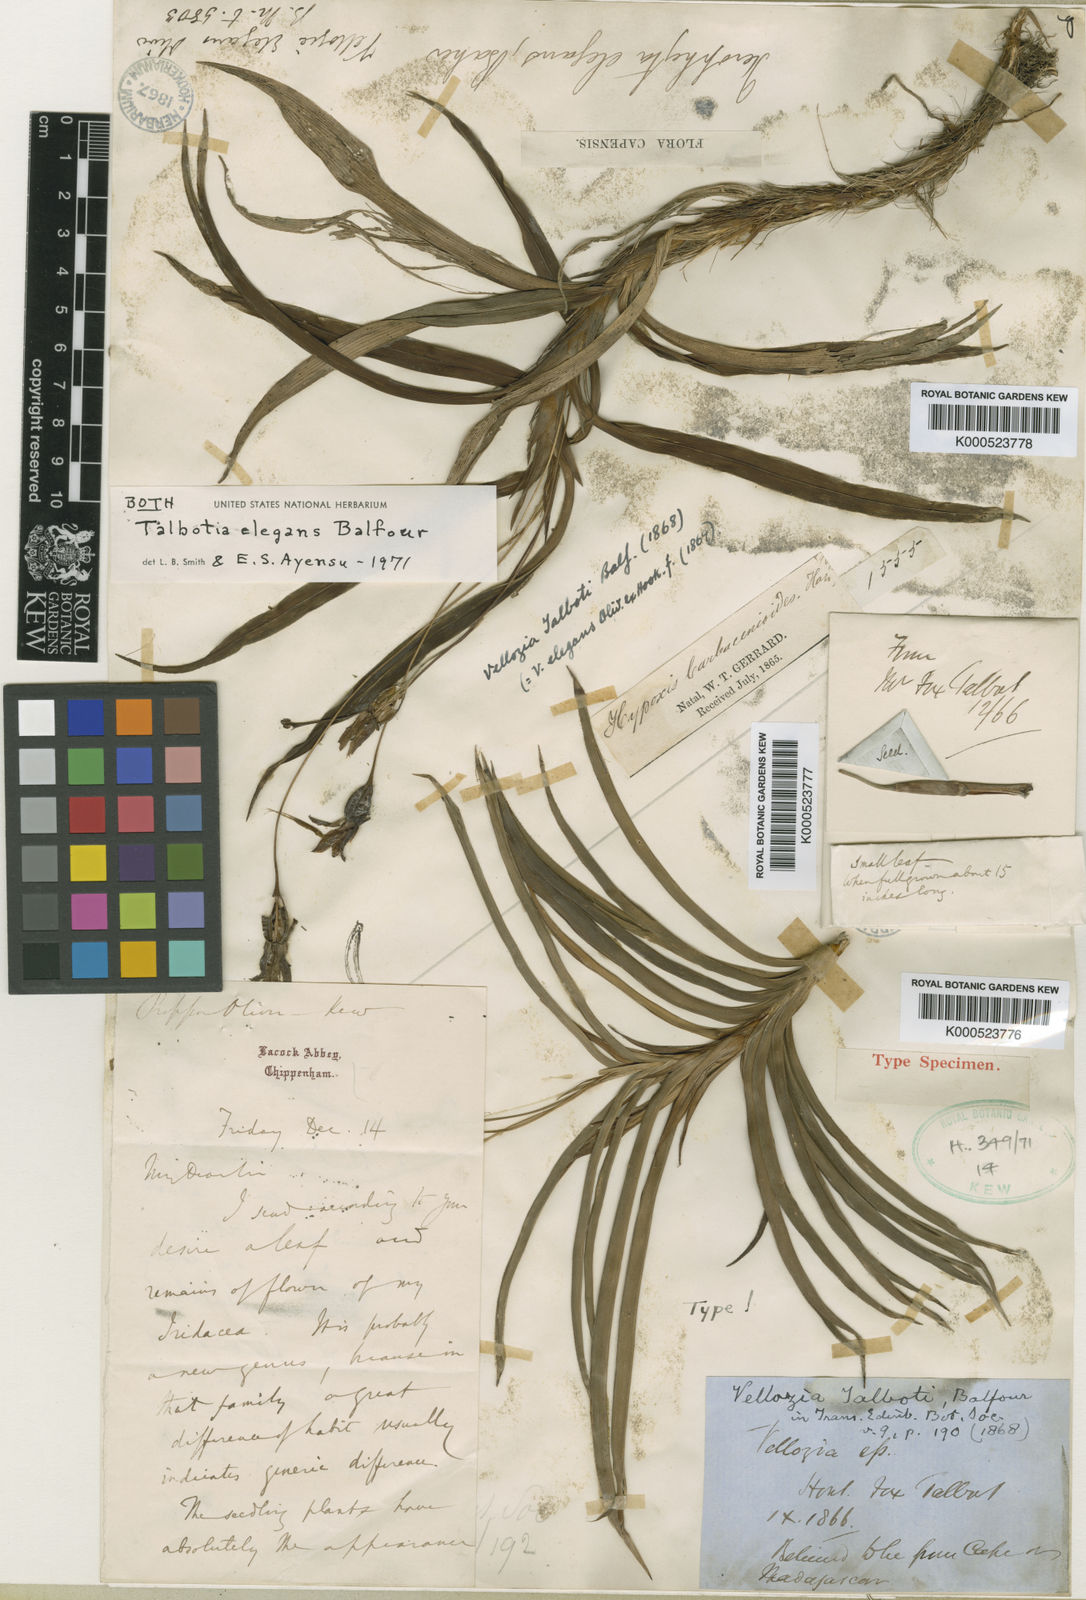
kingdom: Plantae
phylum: Tracheophyta
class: Liliopsida
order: Pandanales
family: Velloziaceae
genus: Xerophyta
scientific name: Xerophyta elegans
